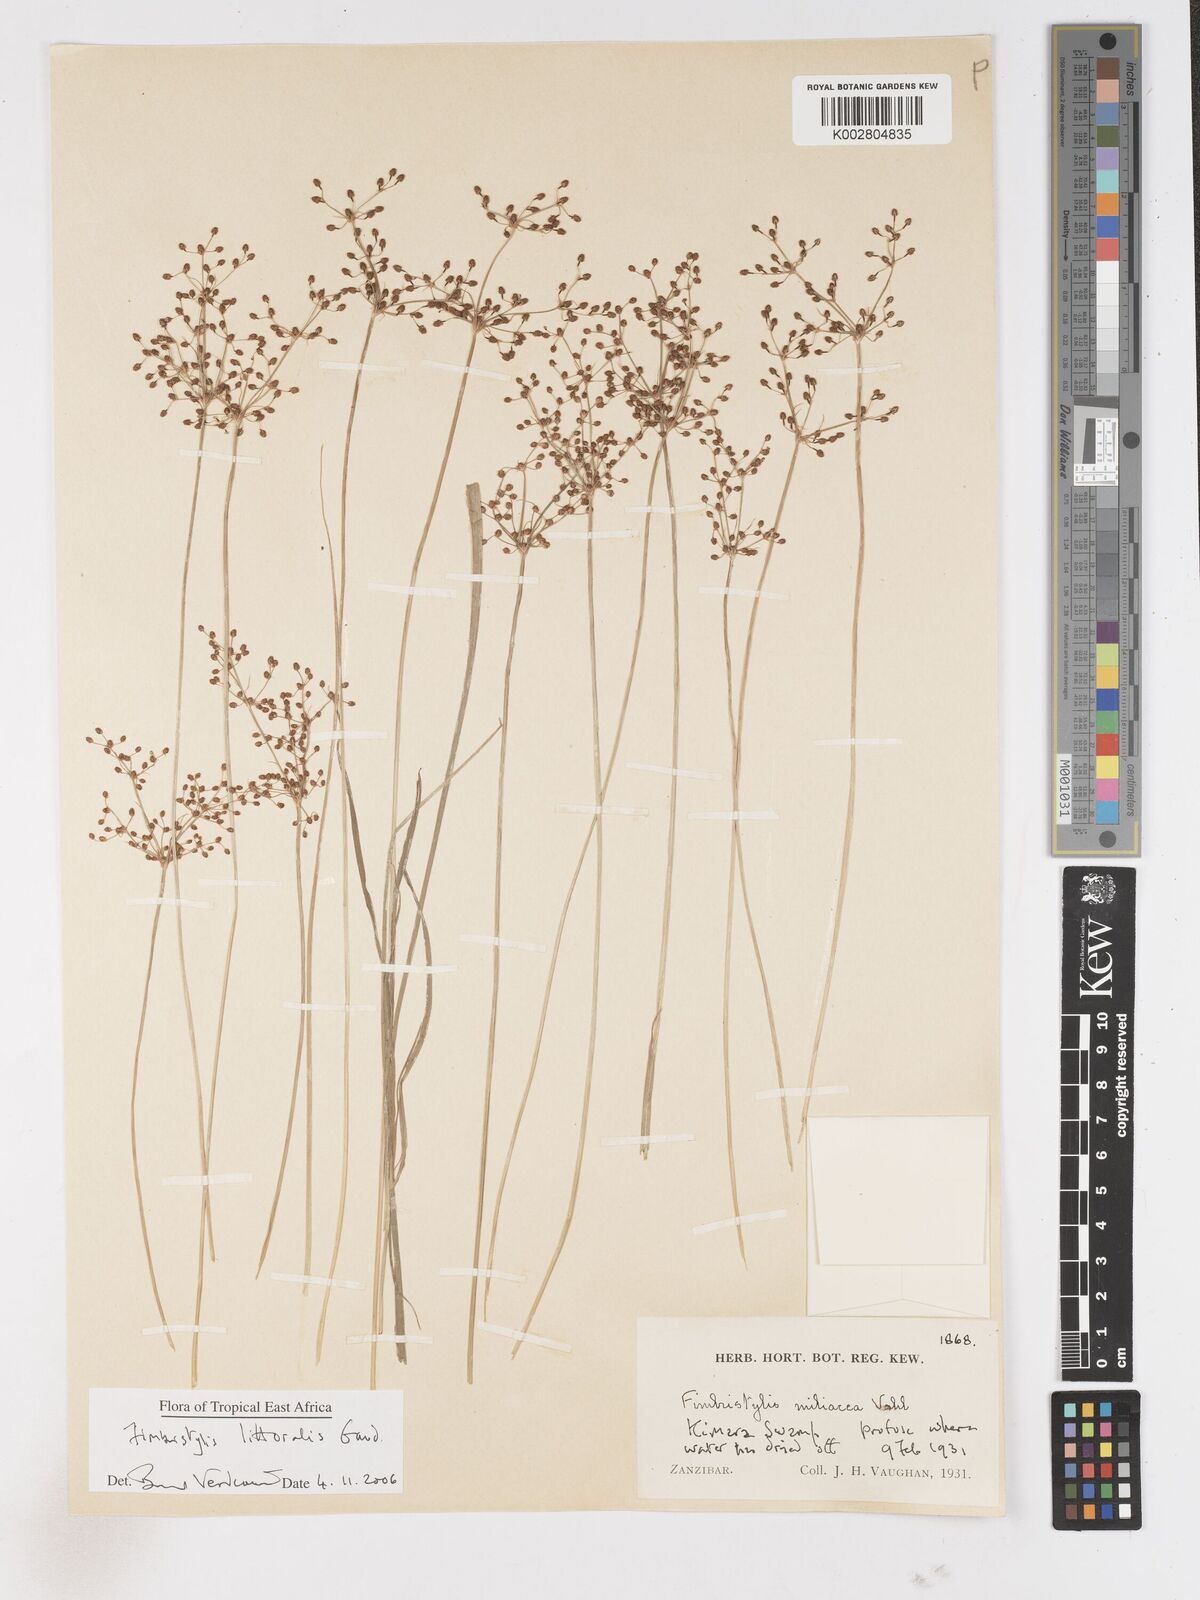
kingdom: Plantae
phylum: Tracheophyta
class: Liliopsida
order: Poales
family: Cyperaceae
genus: Fimbristylis
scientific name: Fimbristylis littoralis
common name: Fimbry
